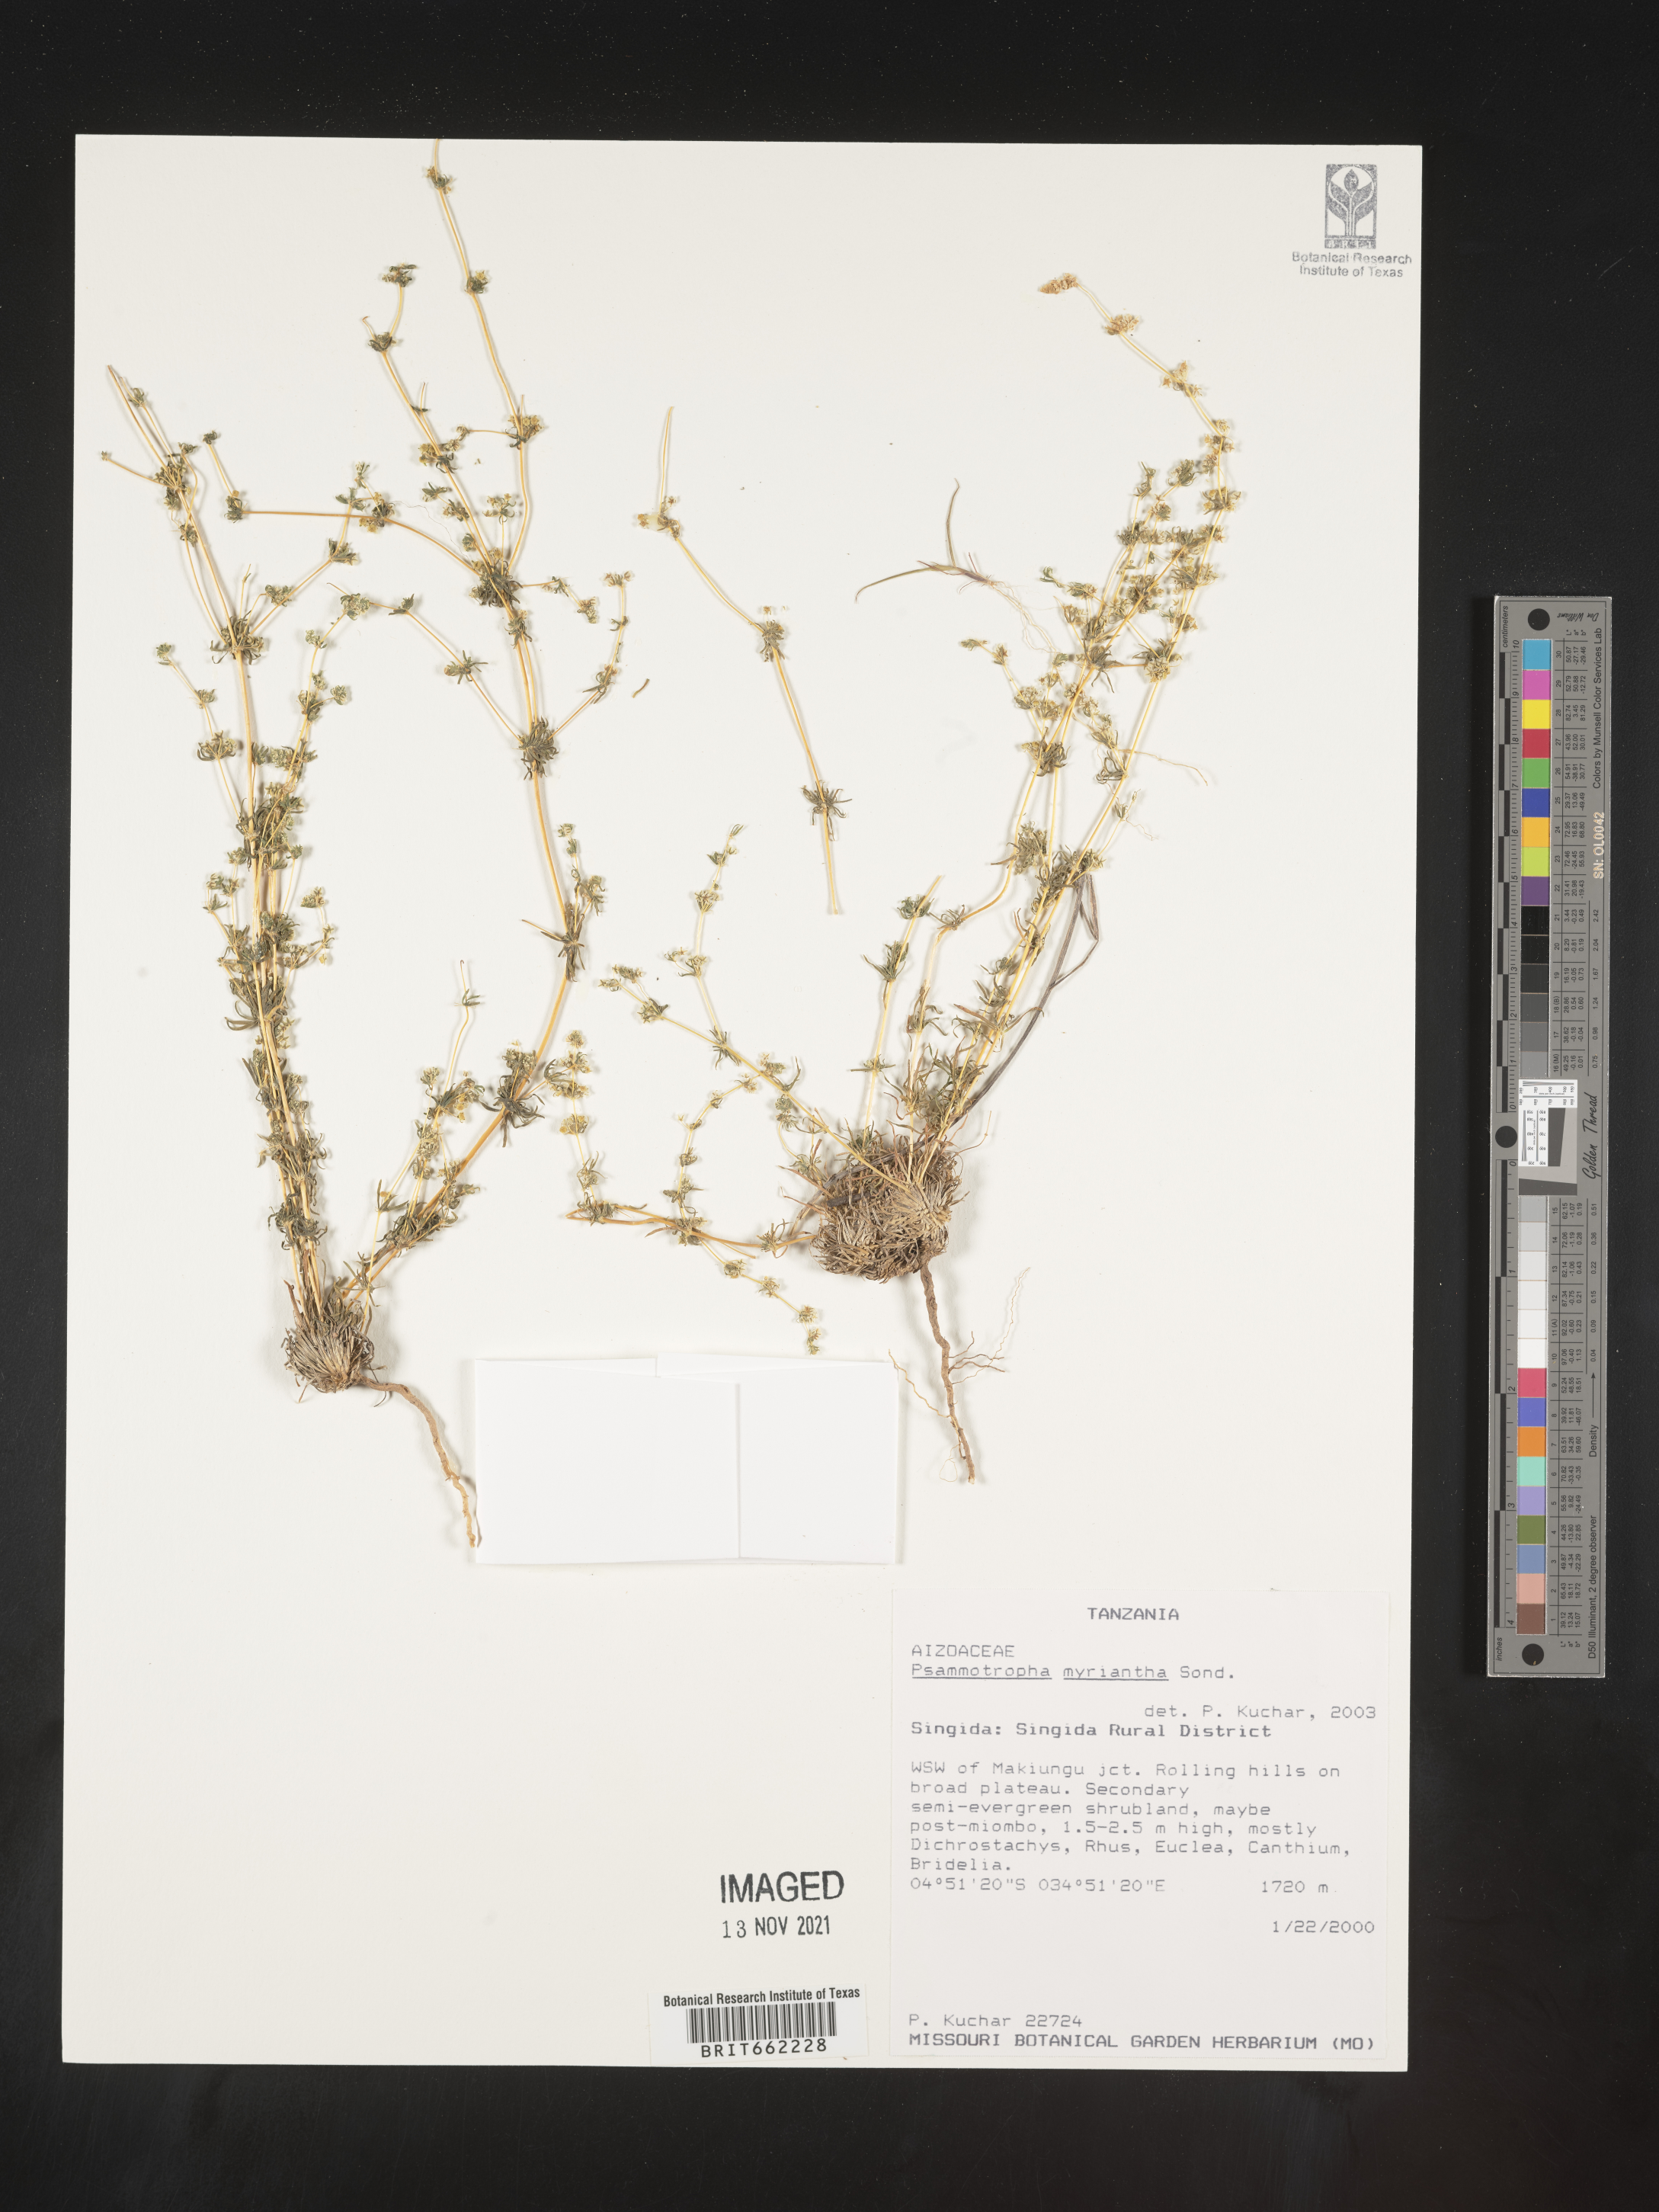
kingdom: Plantae
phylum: Tracheophyta
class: Magnoliopsida
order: Caryophyllales
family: Molluginaceae
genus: Psammotropha
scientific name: Psammotropha
